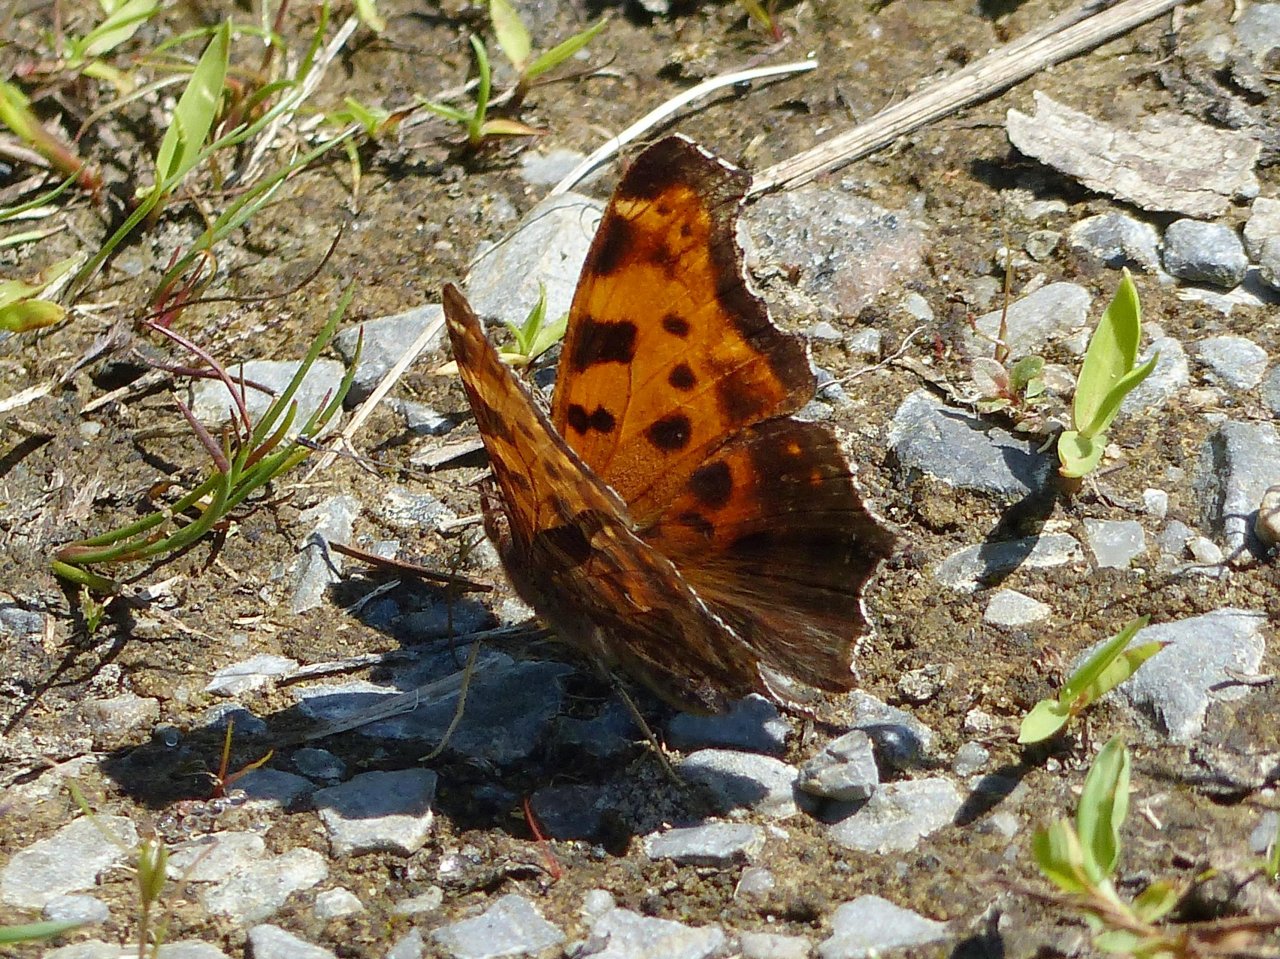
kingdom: Animalia
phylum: Arthropoda
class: Insecta
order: Lepidoptera
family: Nymphalidae
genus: Polygonia
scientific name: Polygonia comma
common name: Eastern Comma
